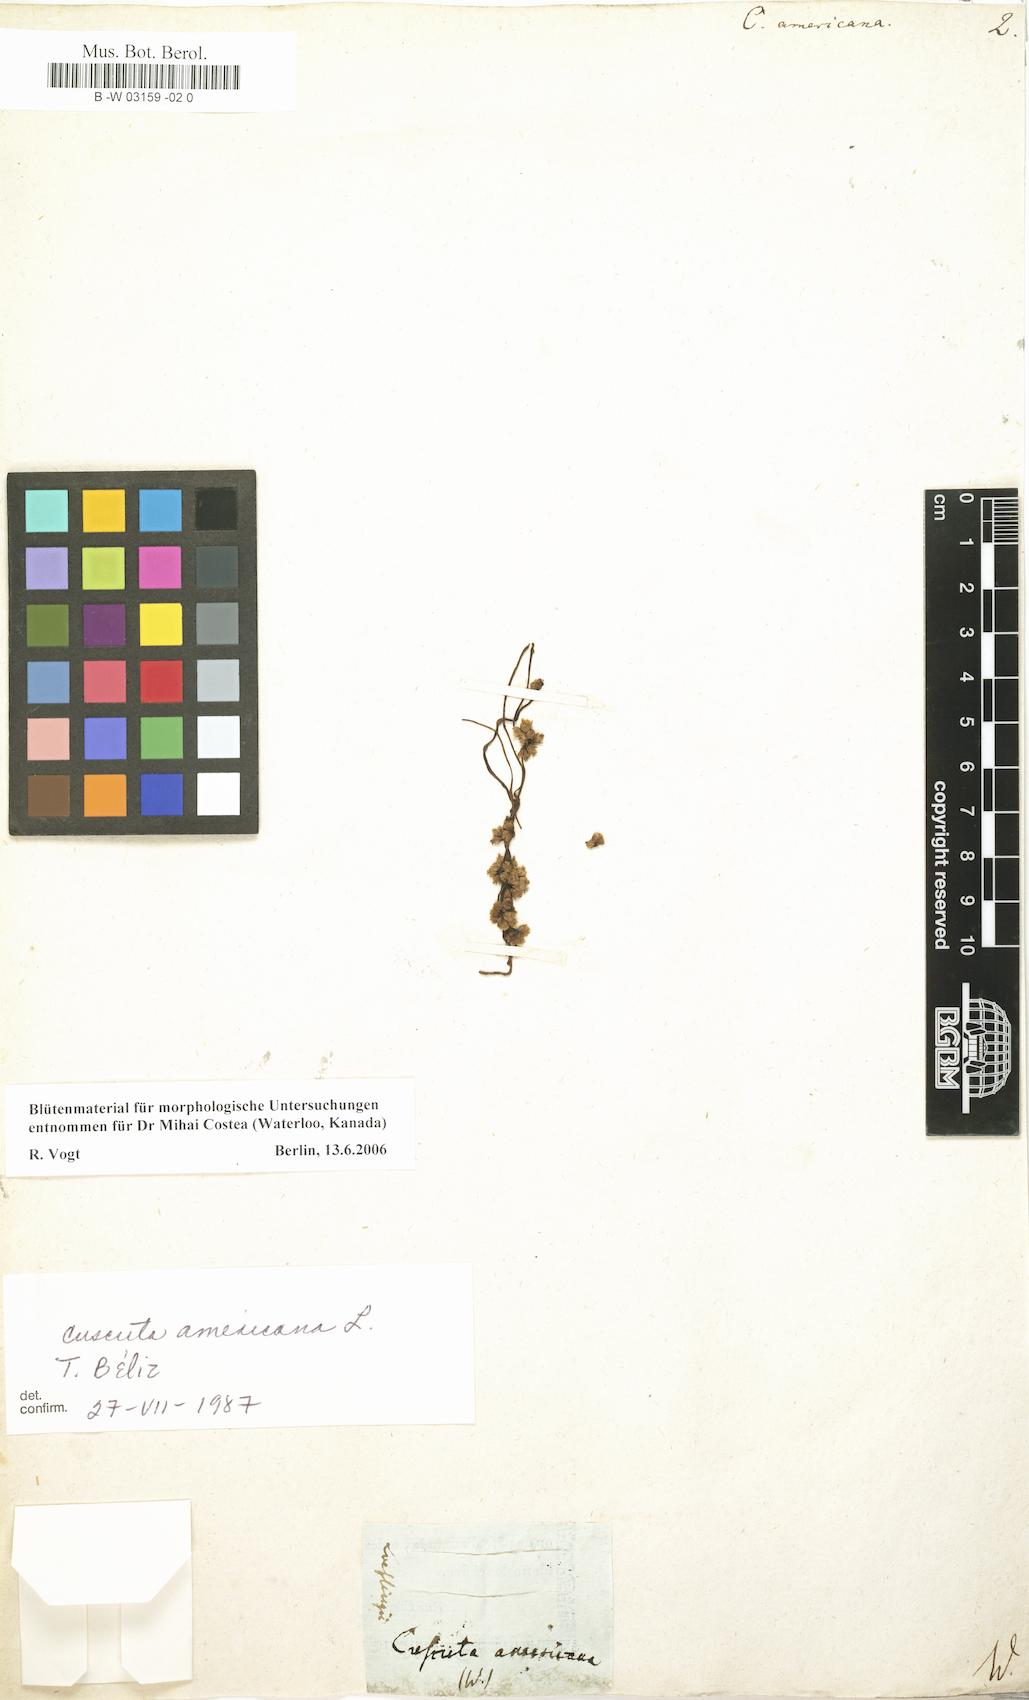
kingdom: Plantae
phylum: Tracheophyta
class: Magnoliopsida
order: Solanales
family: Convolvulaceae
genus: Cuscuta
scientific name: Cuscuta americana
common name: American dodder
